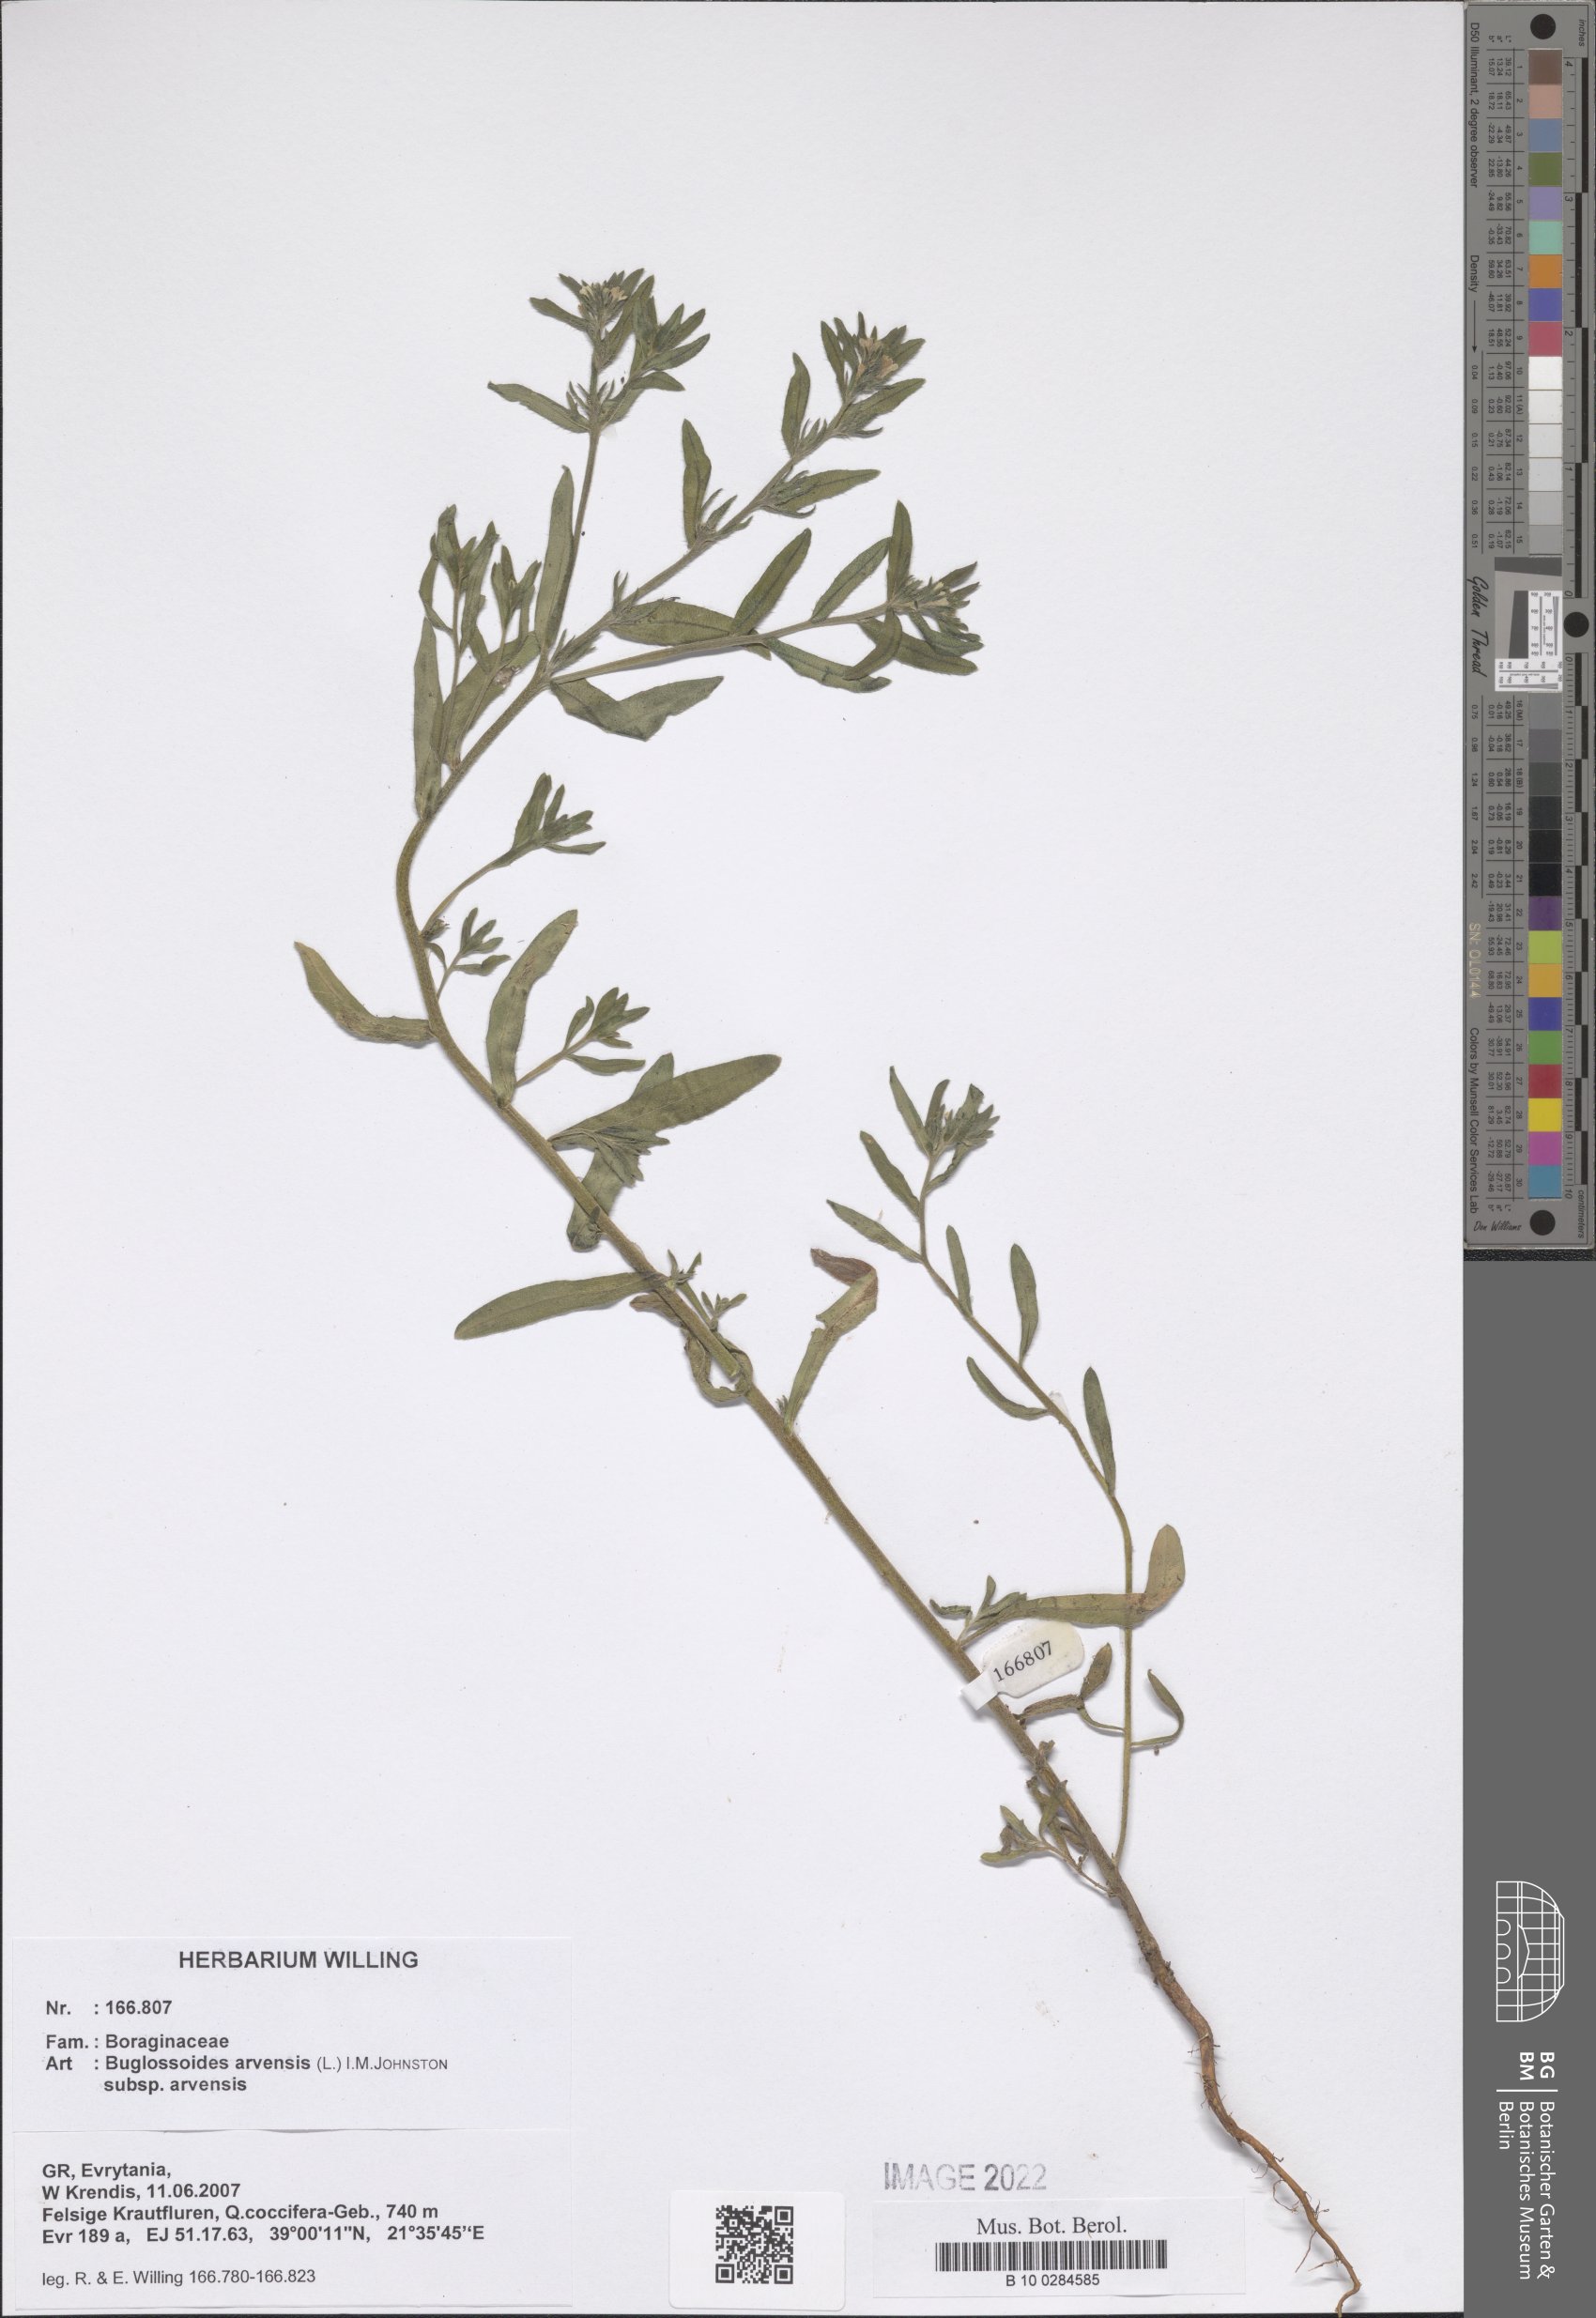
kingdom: Plantae
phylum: Tracheophyta
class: Magnoliopsida
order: Boraginales
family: Boraginaceae
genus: Buglossoides
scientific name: Buglossoides arvensis
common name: Corn gromwell
